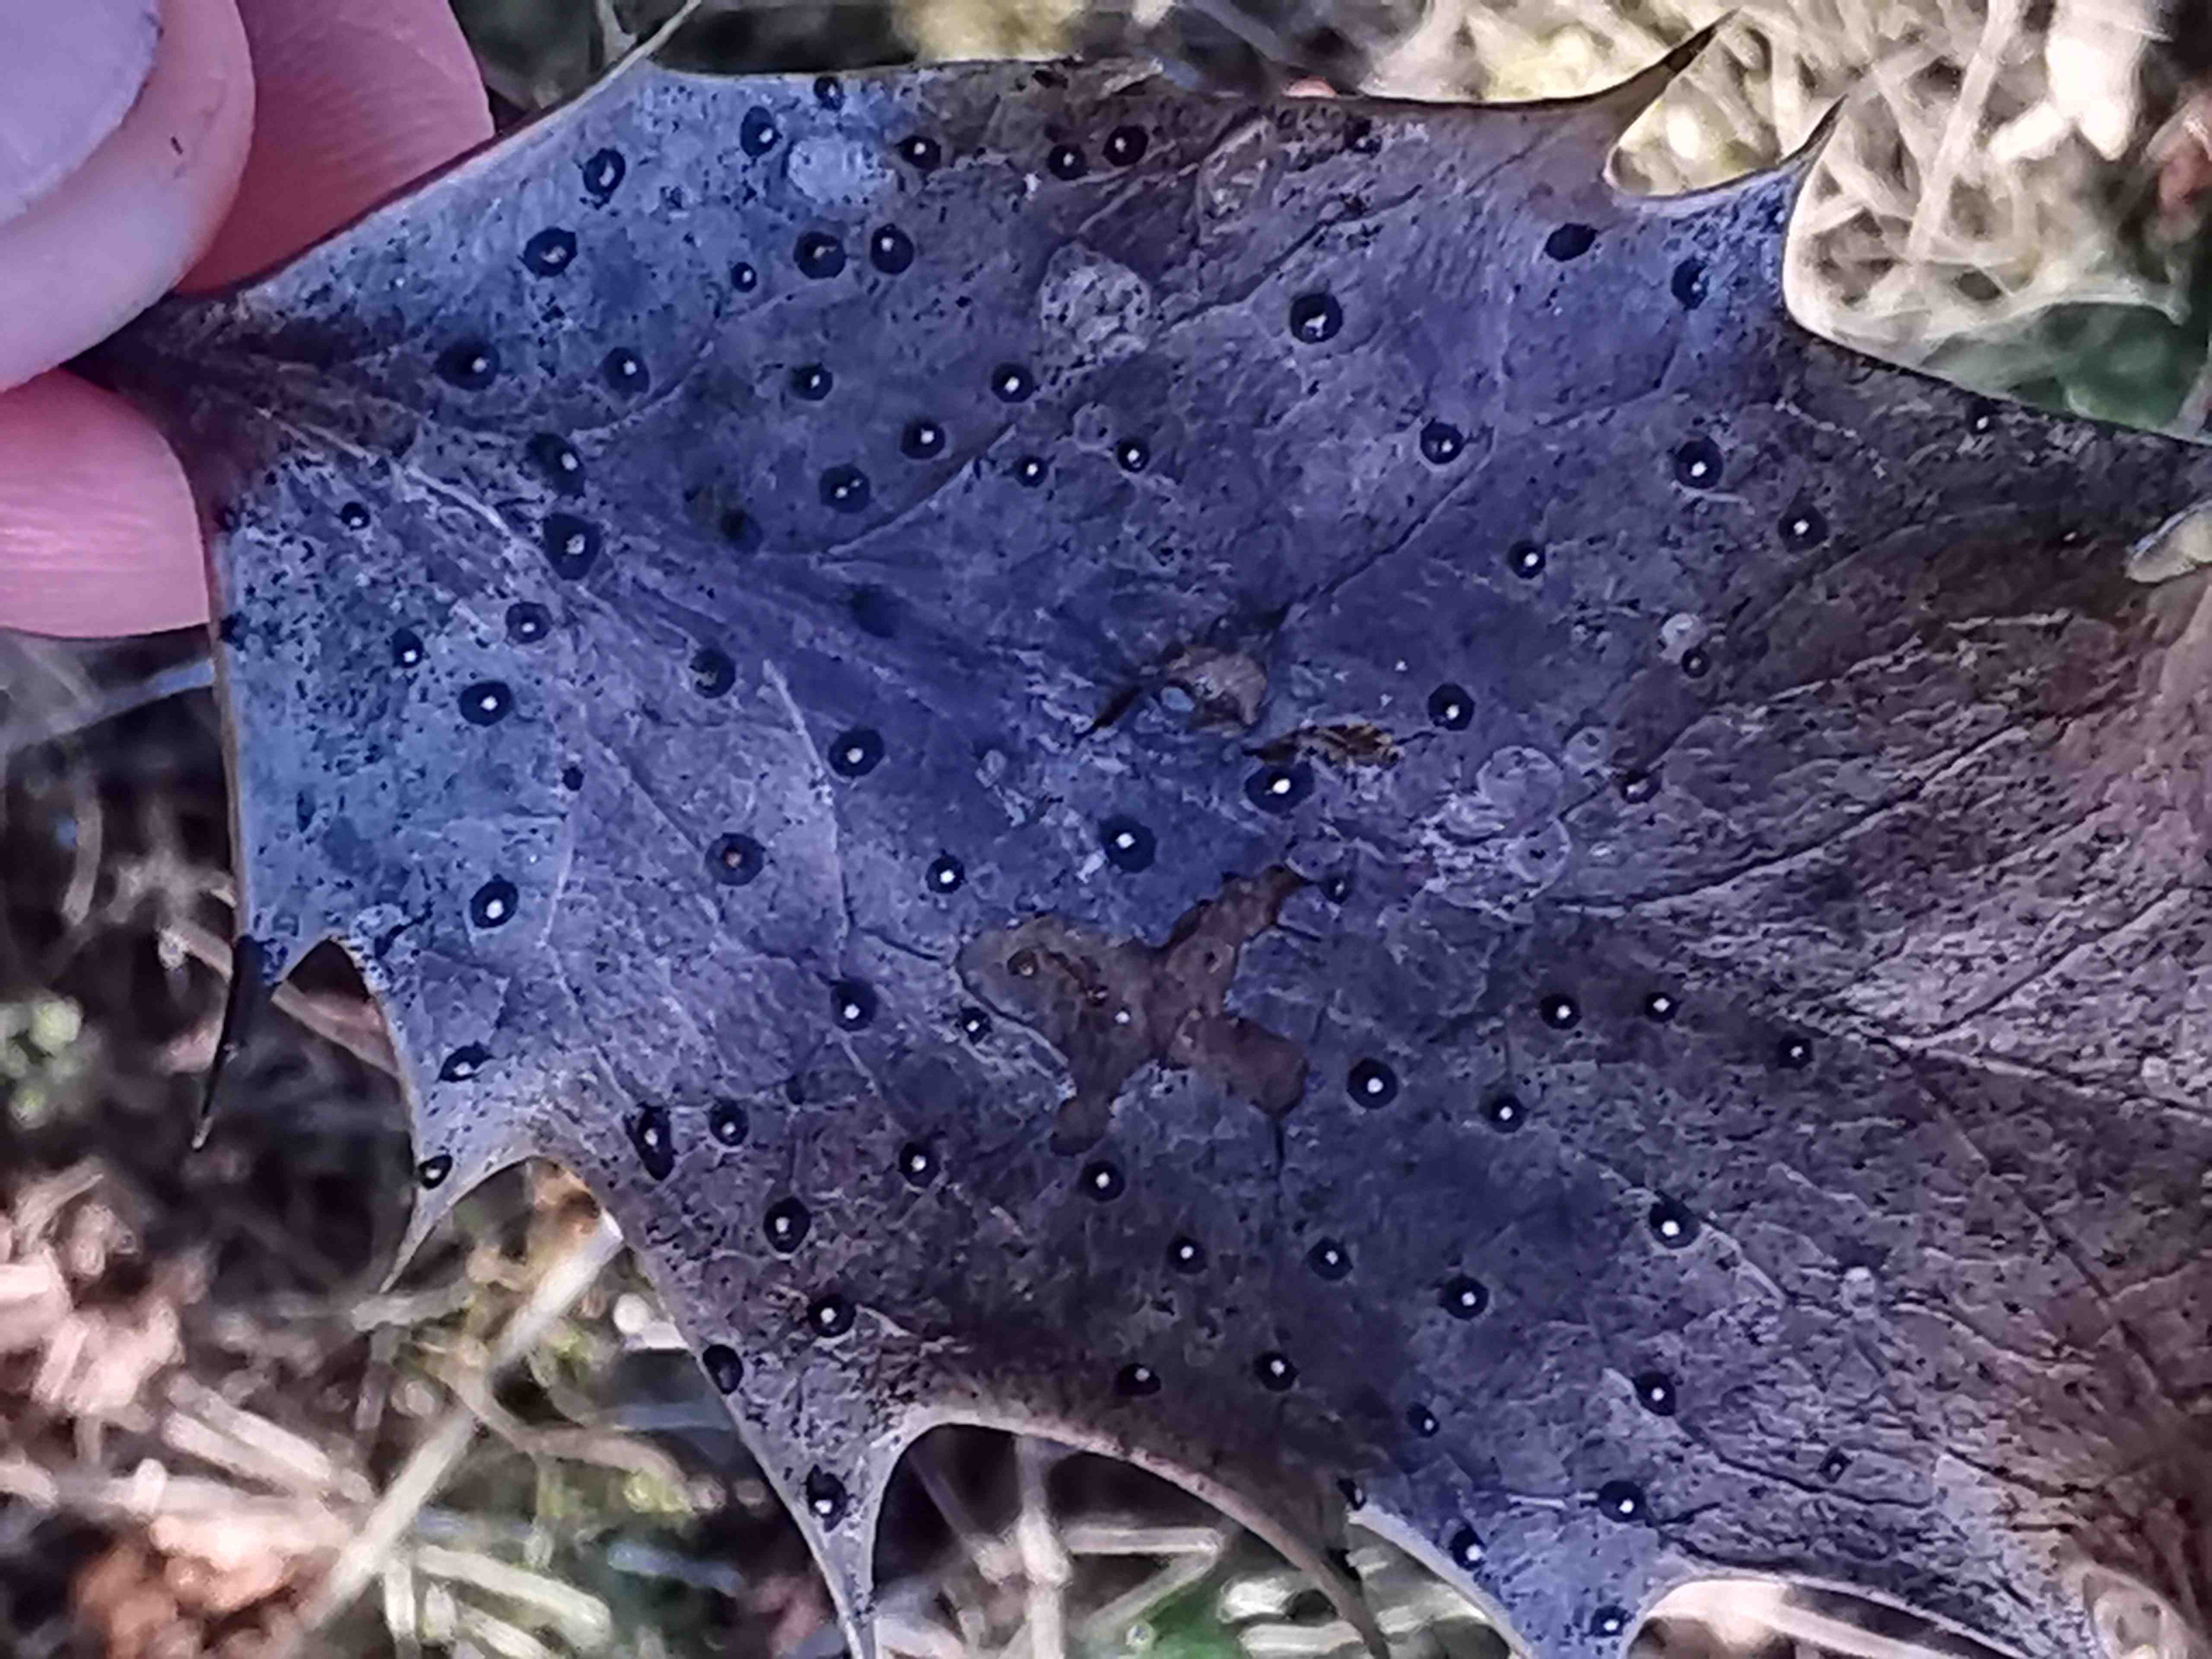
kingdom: Fungi
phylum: Ascomycota
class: Leotiomycetes
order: Phacidiales
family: Phacidiaceae
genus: Phacidium
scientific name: Phacidium lauri
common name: kristtorn-tandskive
